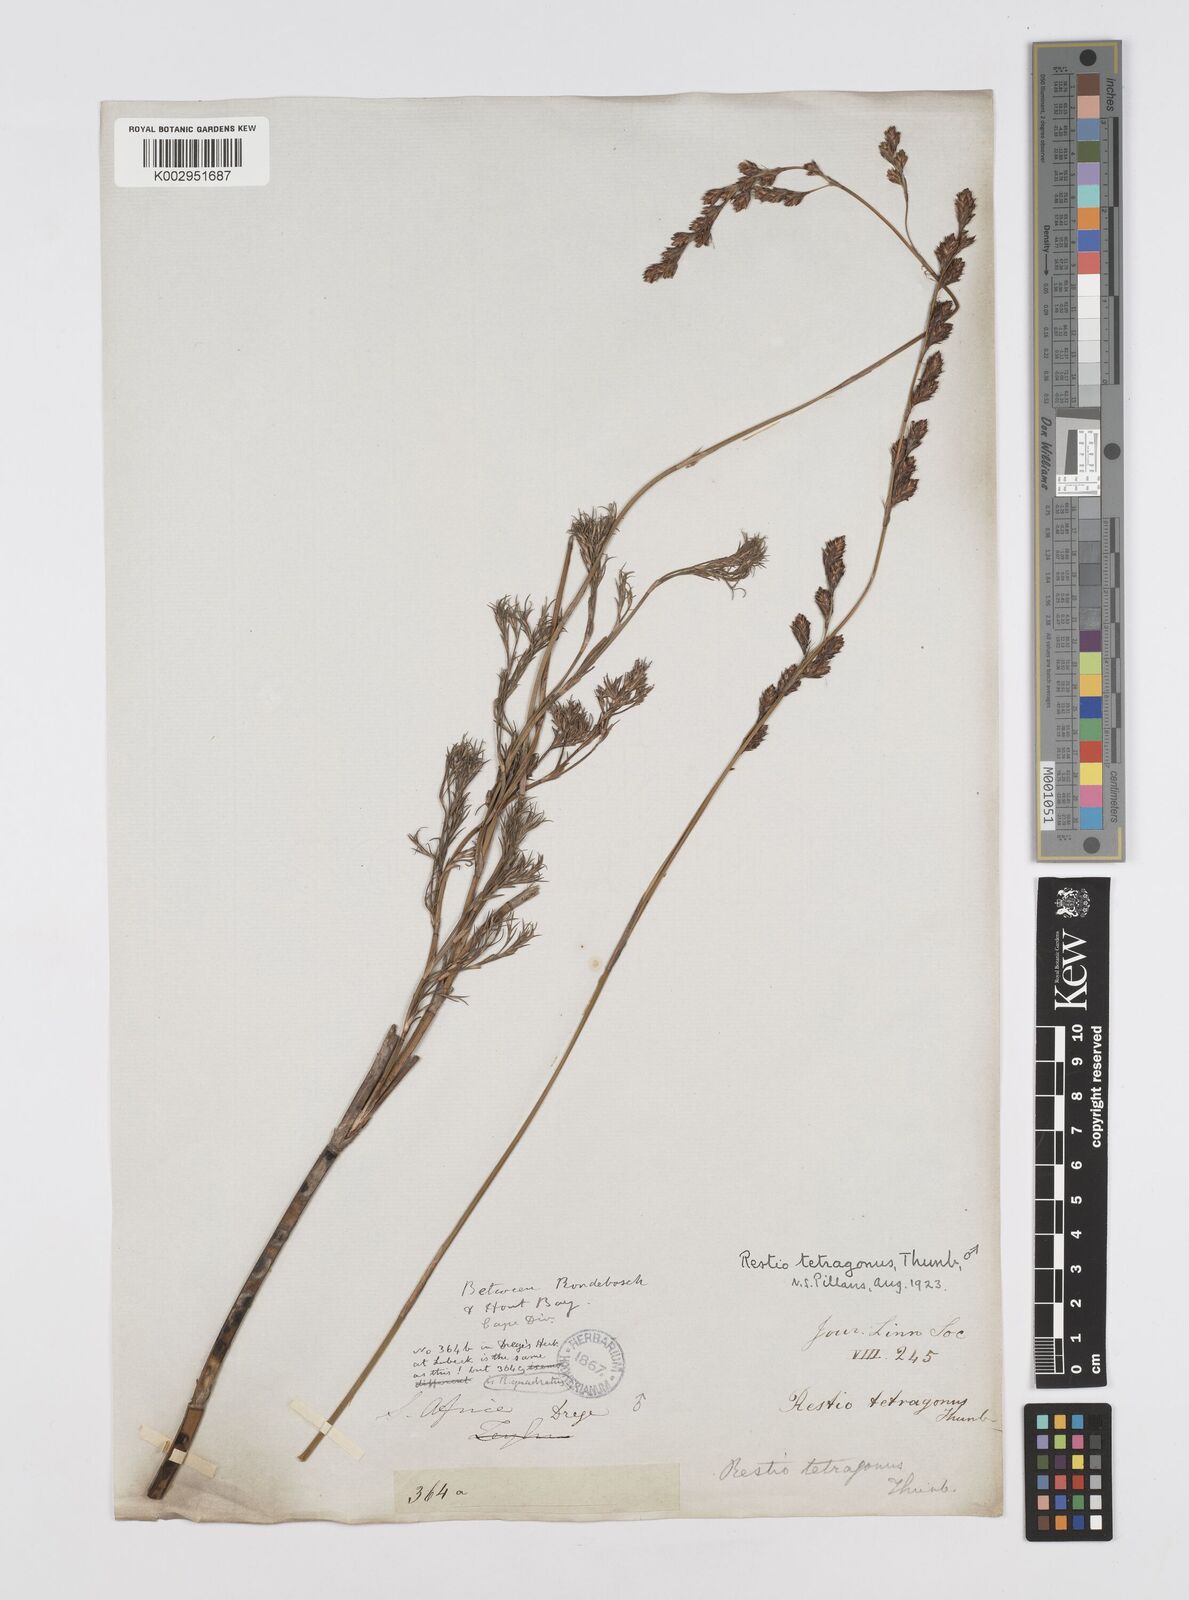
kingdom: Plantae
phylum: Tracheophyta
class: Liliopsida
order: Poales
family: Restionaceae
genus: Restio
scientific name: Restio tetragonus
